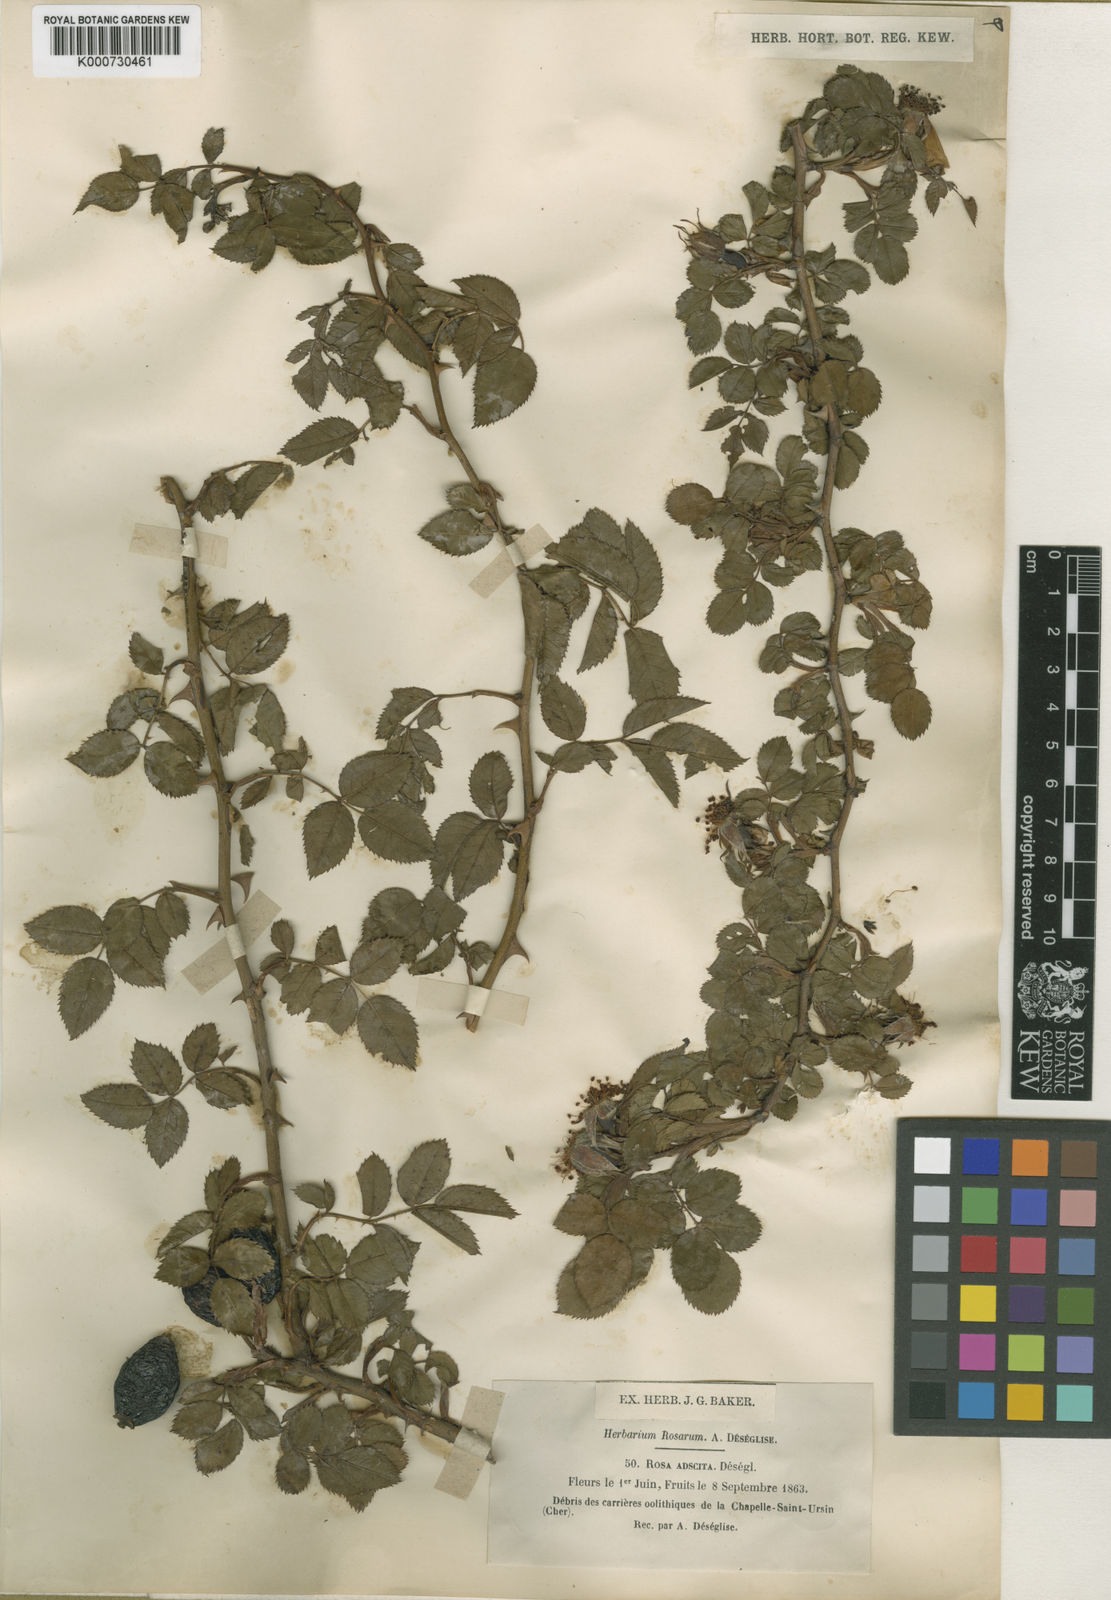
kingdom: Plantae
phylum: Tracheophyta
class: Magnoliopsida
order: Rosales
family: Rosaceae
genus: Rosa
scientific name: Rosa canina
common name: Dog rose
